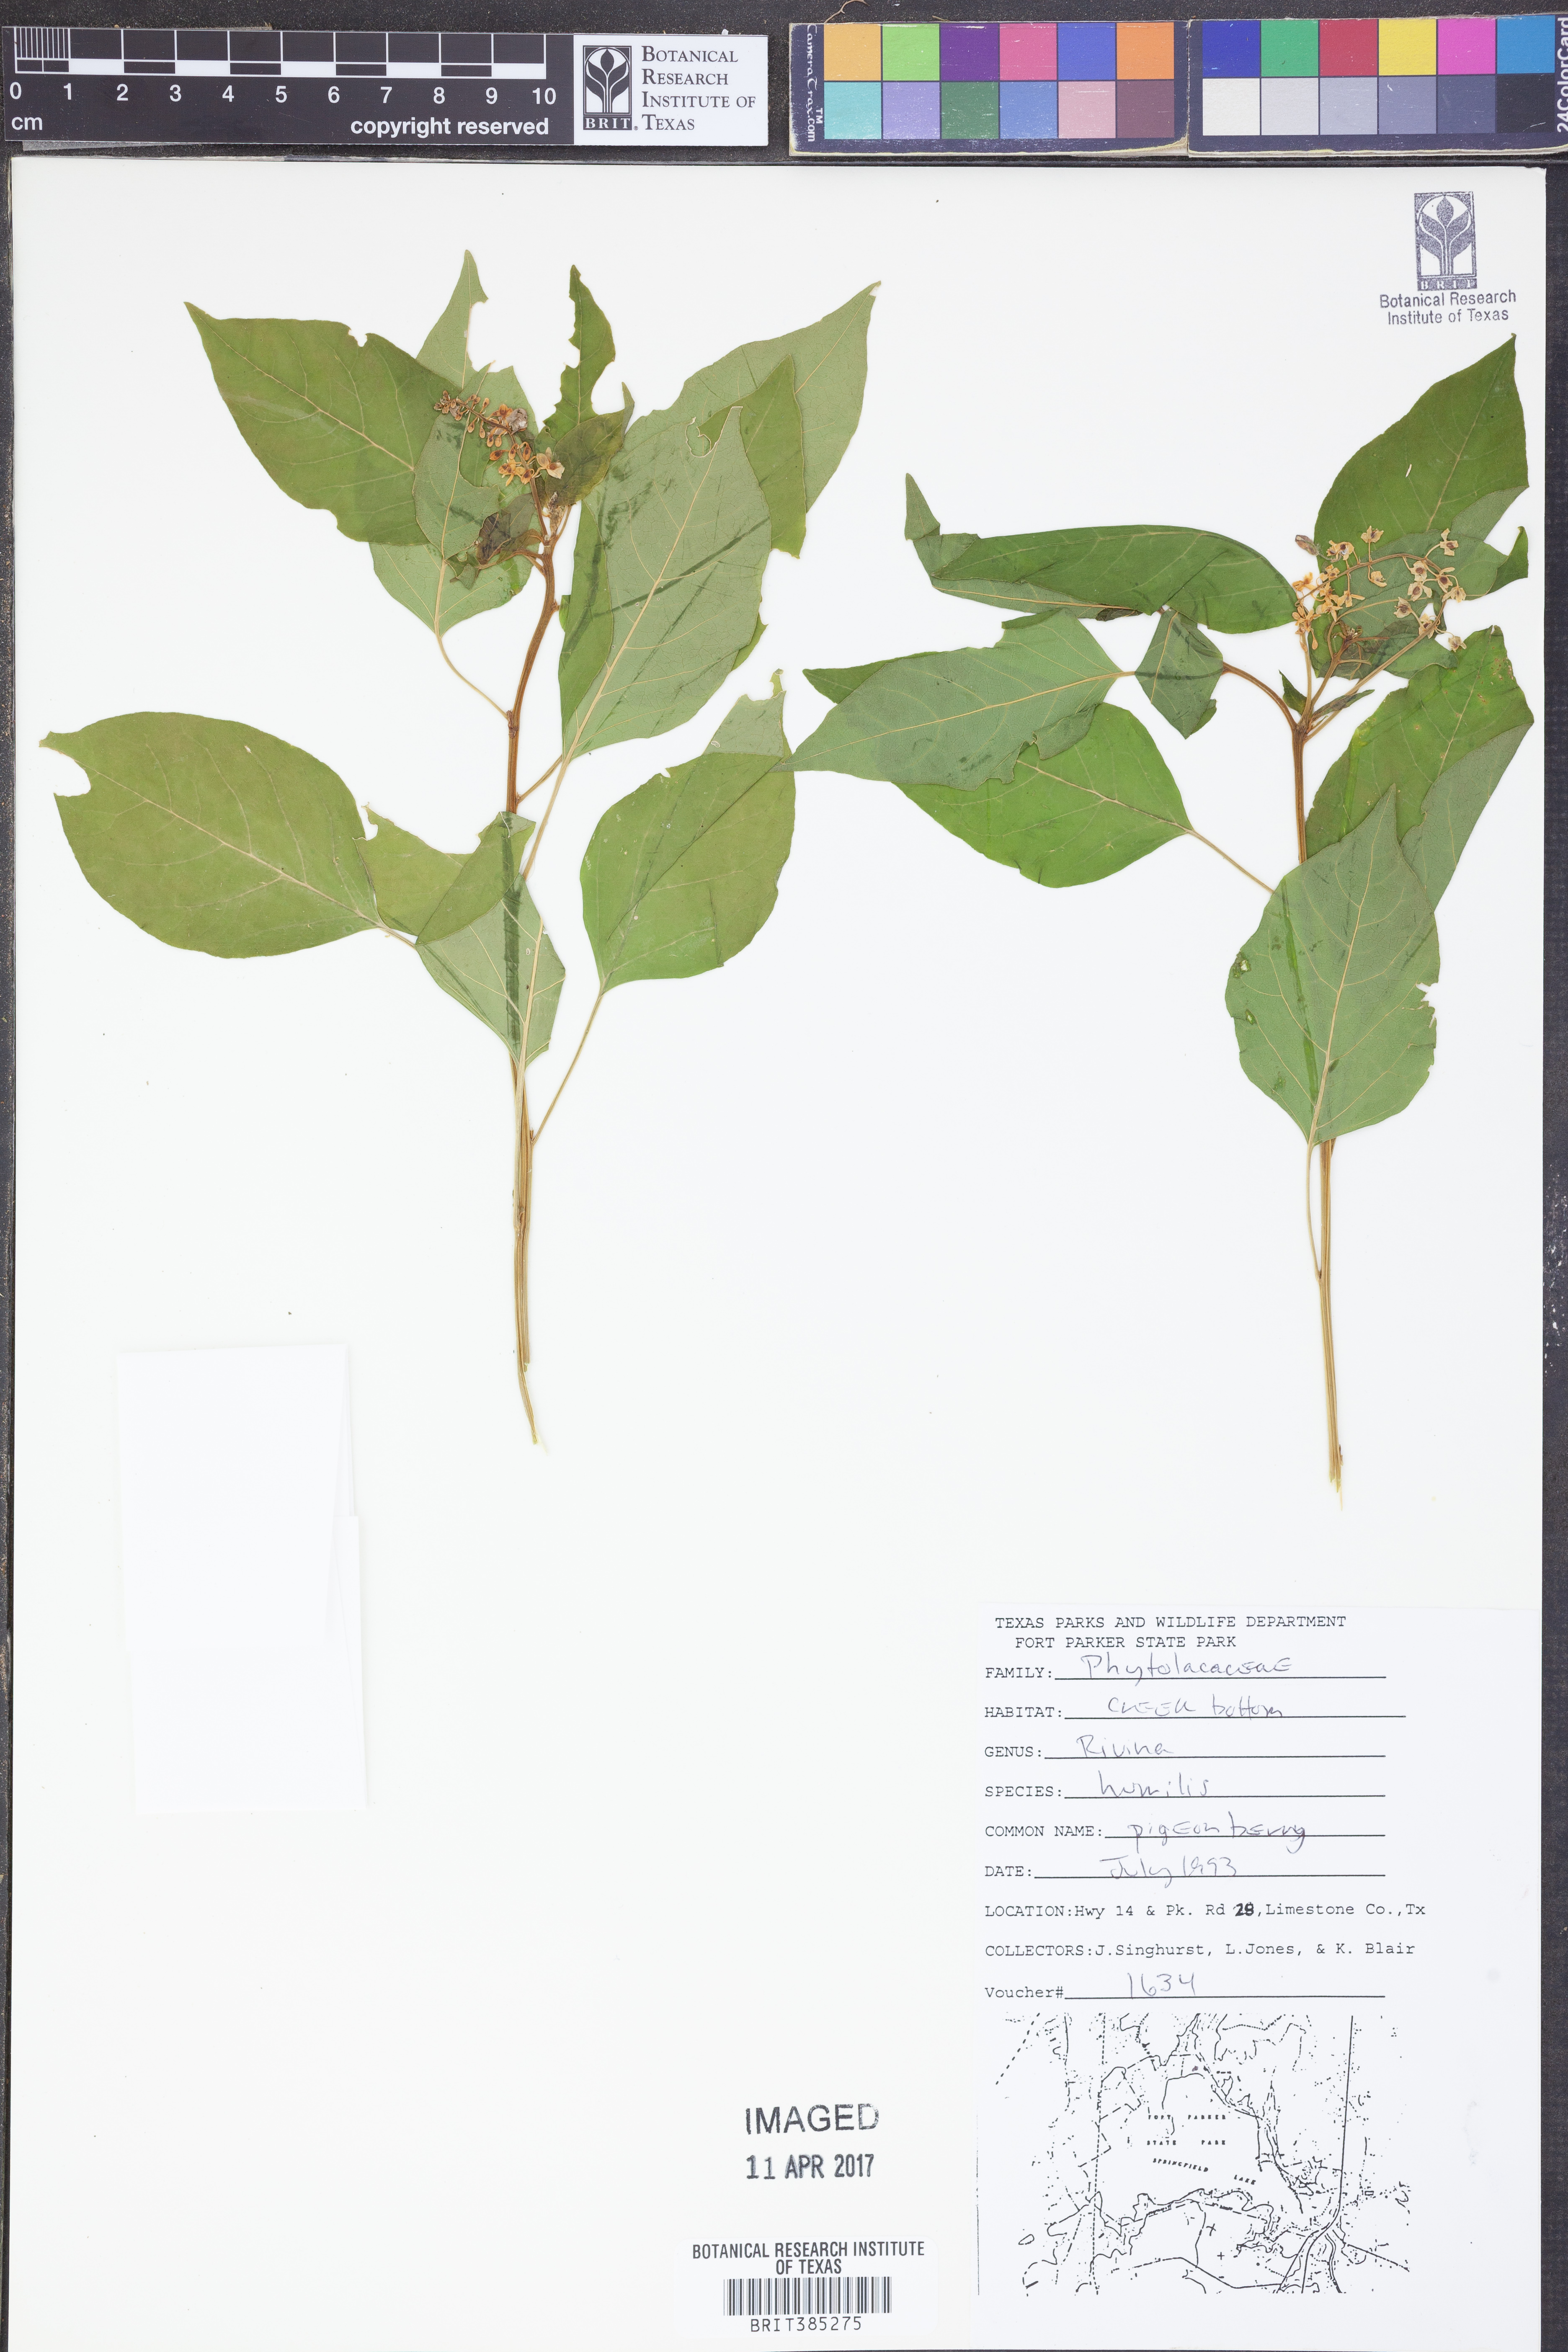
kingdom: Plantae
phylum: Tracheophyta
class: Magnoliopsida
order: Caryophyllales
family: Phytolaccaceae
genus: Rivina
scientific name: Rivina humilis
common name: Rougeplant
